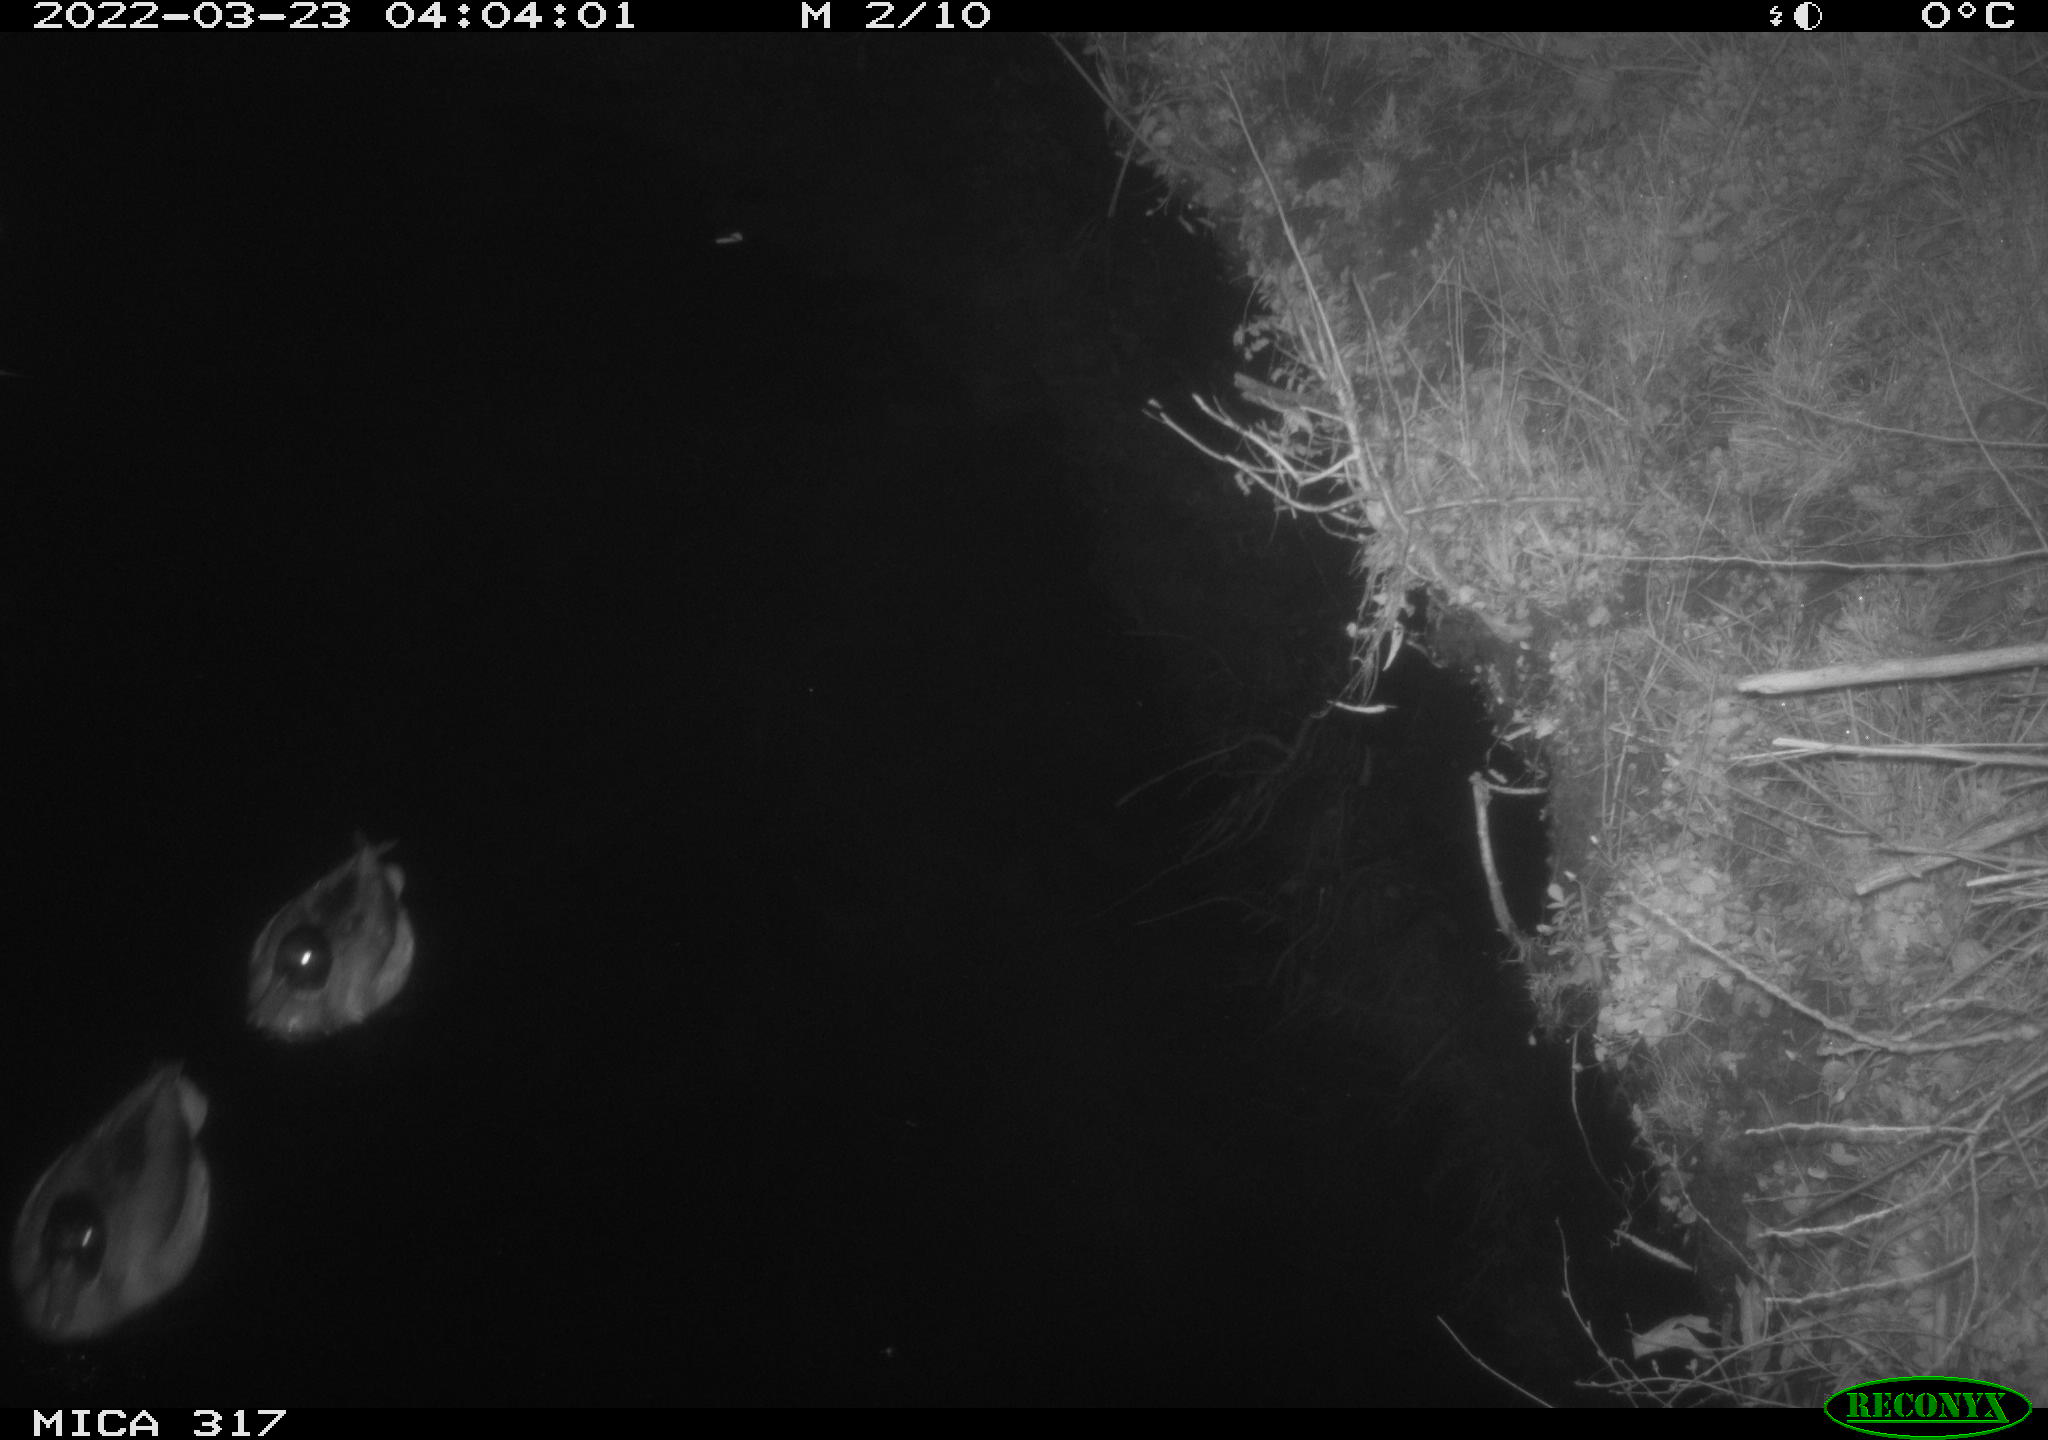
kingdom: Animalia
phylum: Chordata
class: Aves
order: Anseriformes
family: Anatidae
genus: Anas
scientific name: Anas platyrhynchos
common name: Mallard
